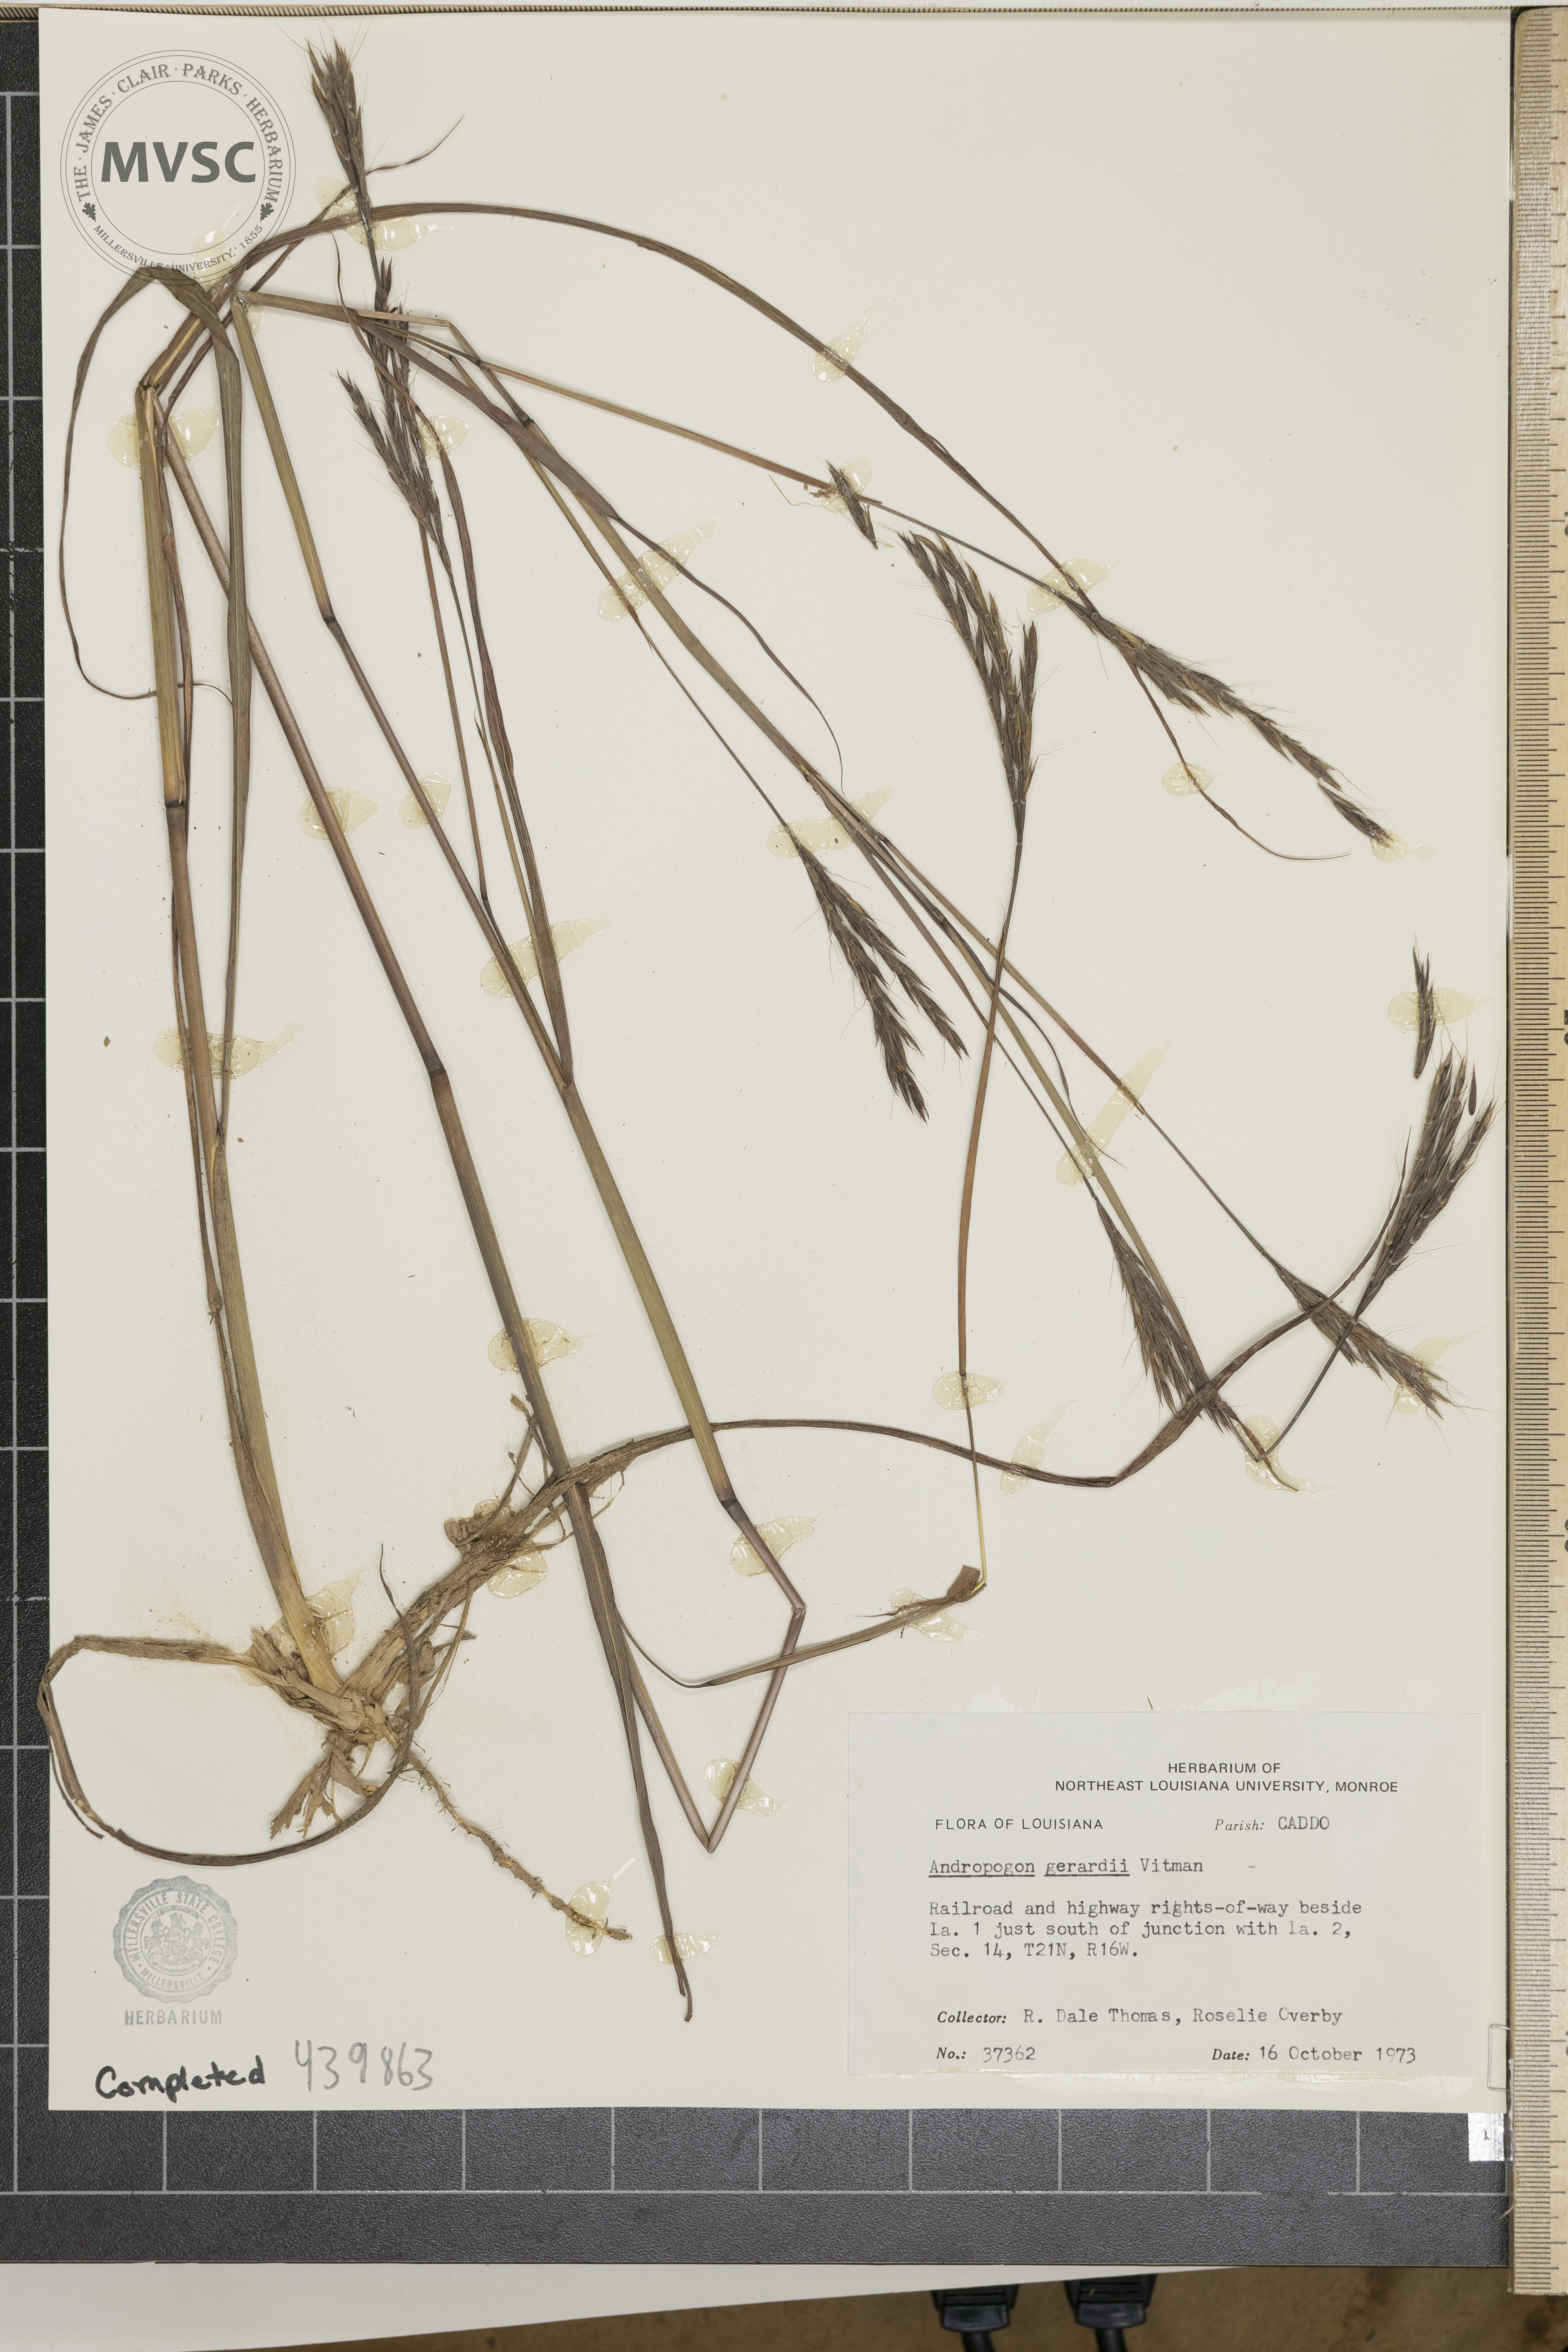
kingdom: Plantae
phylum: Tracheophyta
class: Liliopsida
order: Poales
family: Poaceae
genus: Andropogon
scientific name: Andropogon gerardi
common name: Big bluestem
